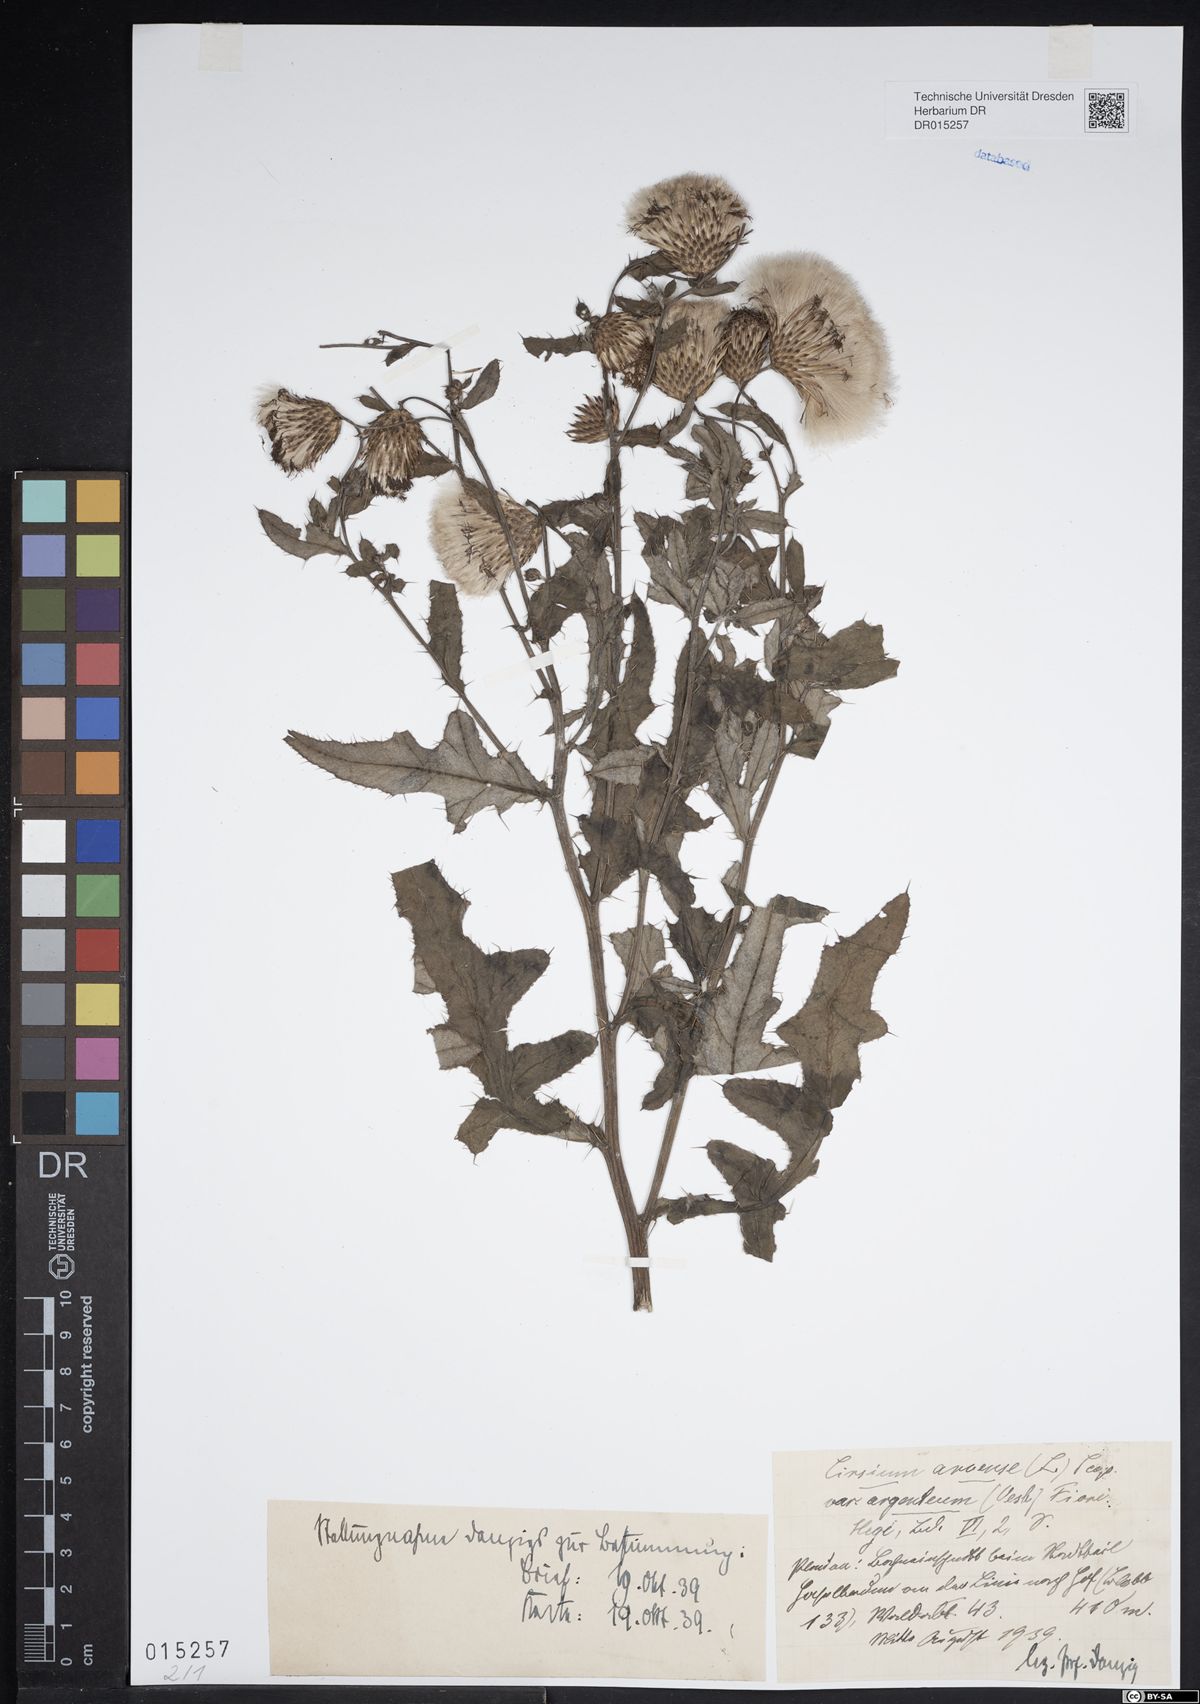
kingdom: Plantae
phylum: Tracheophyta
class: Magnoliopsida
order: Asterales
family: Asteraceae
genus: Cirsium
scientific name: Cirsium arvense
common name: Creeping thistle
